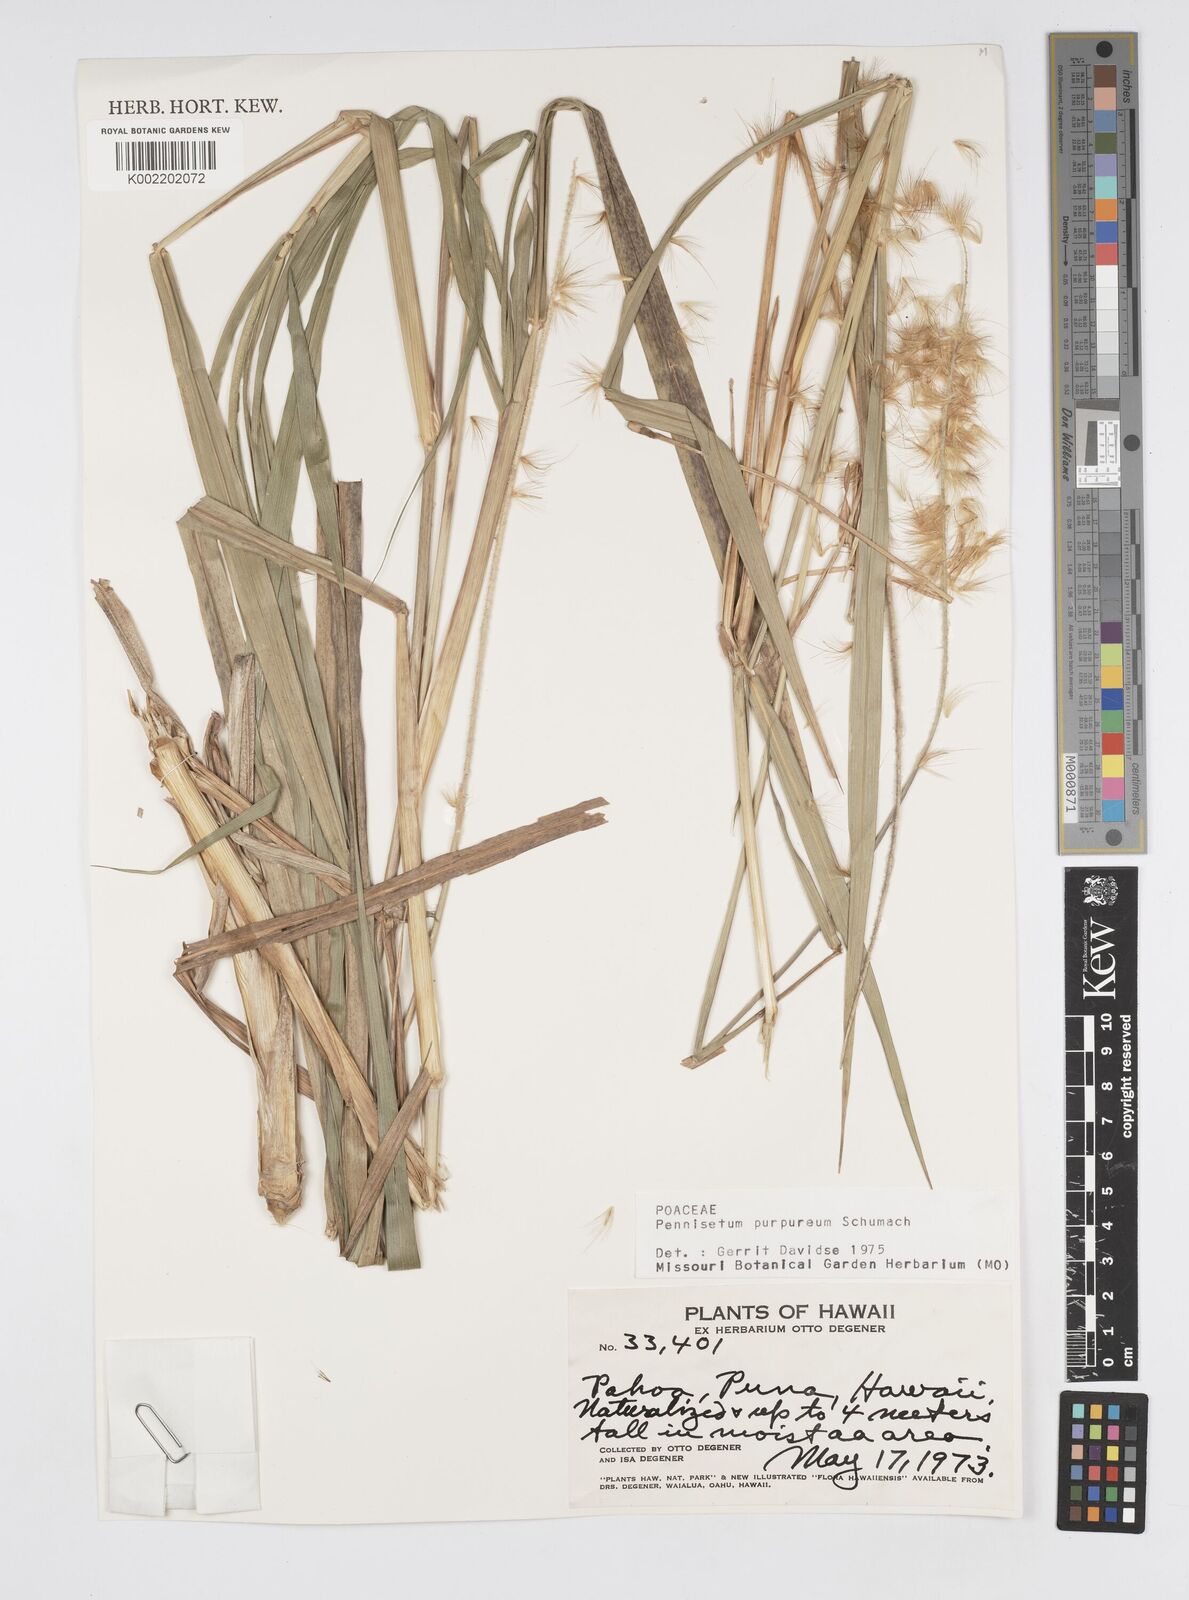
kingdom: Plantae
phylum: Tracheophyta
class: Liliopsida
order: Poales
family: Poaceae
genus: Cenchrus
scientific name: Cenchrus purpureus
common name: Elephant grass
